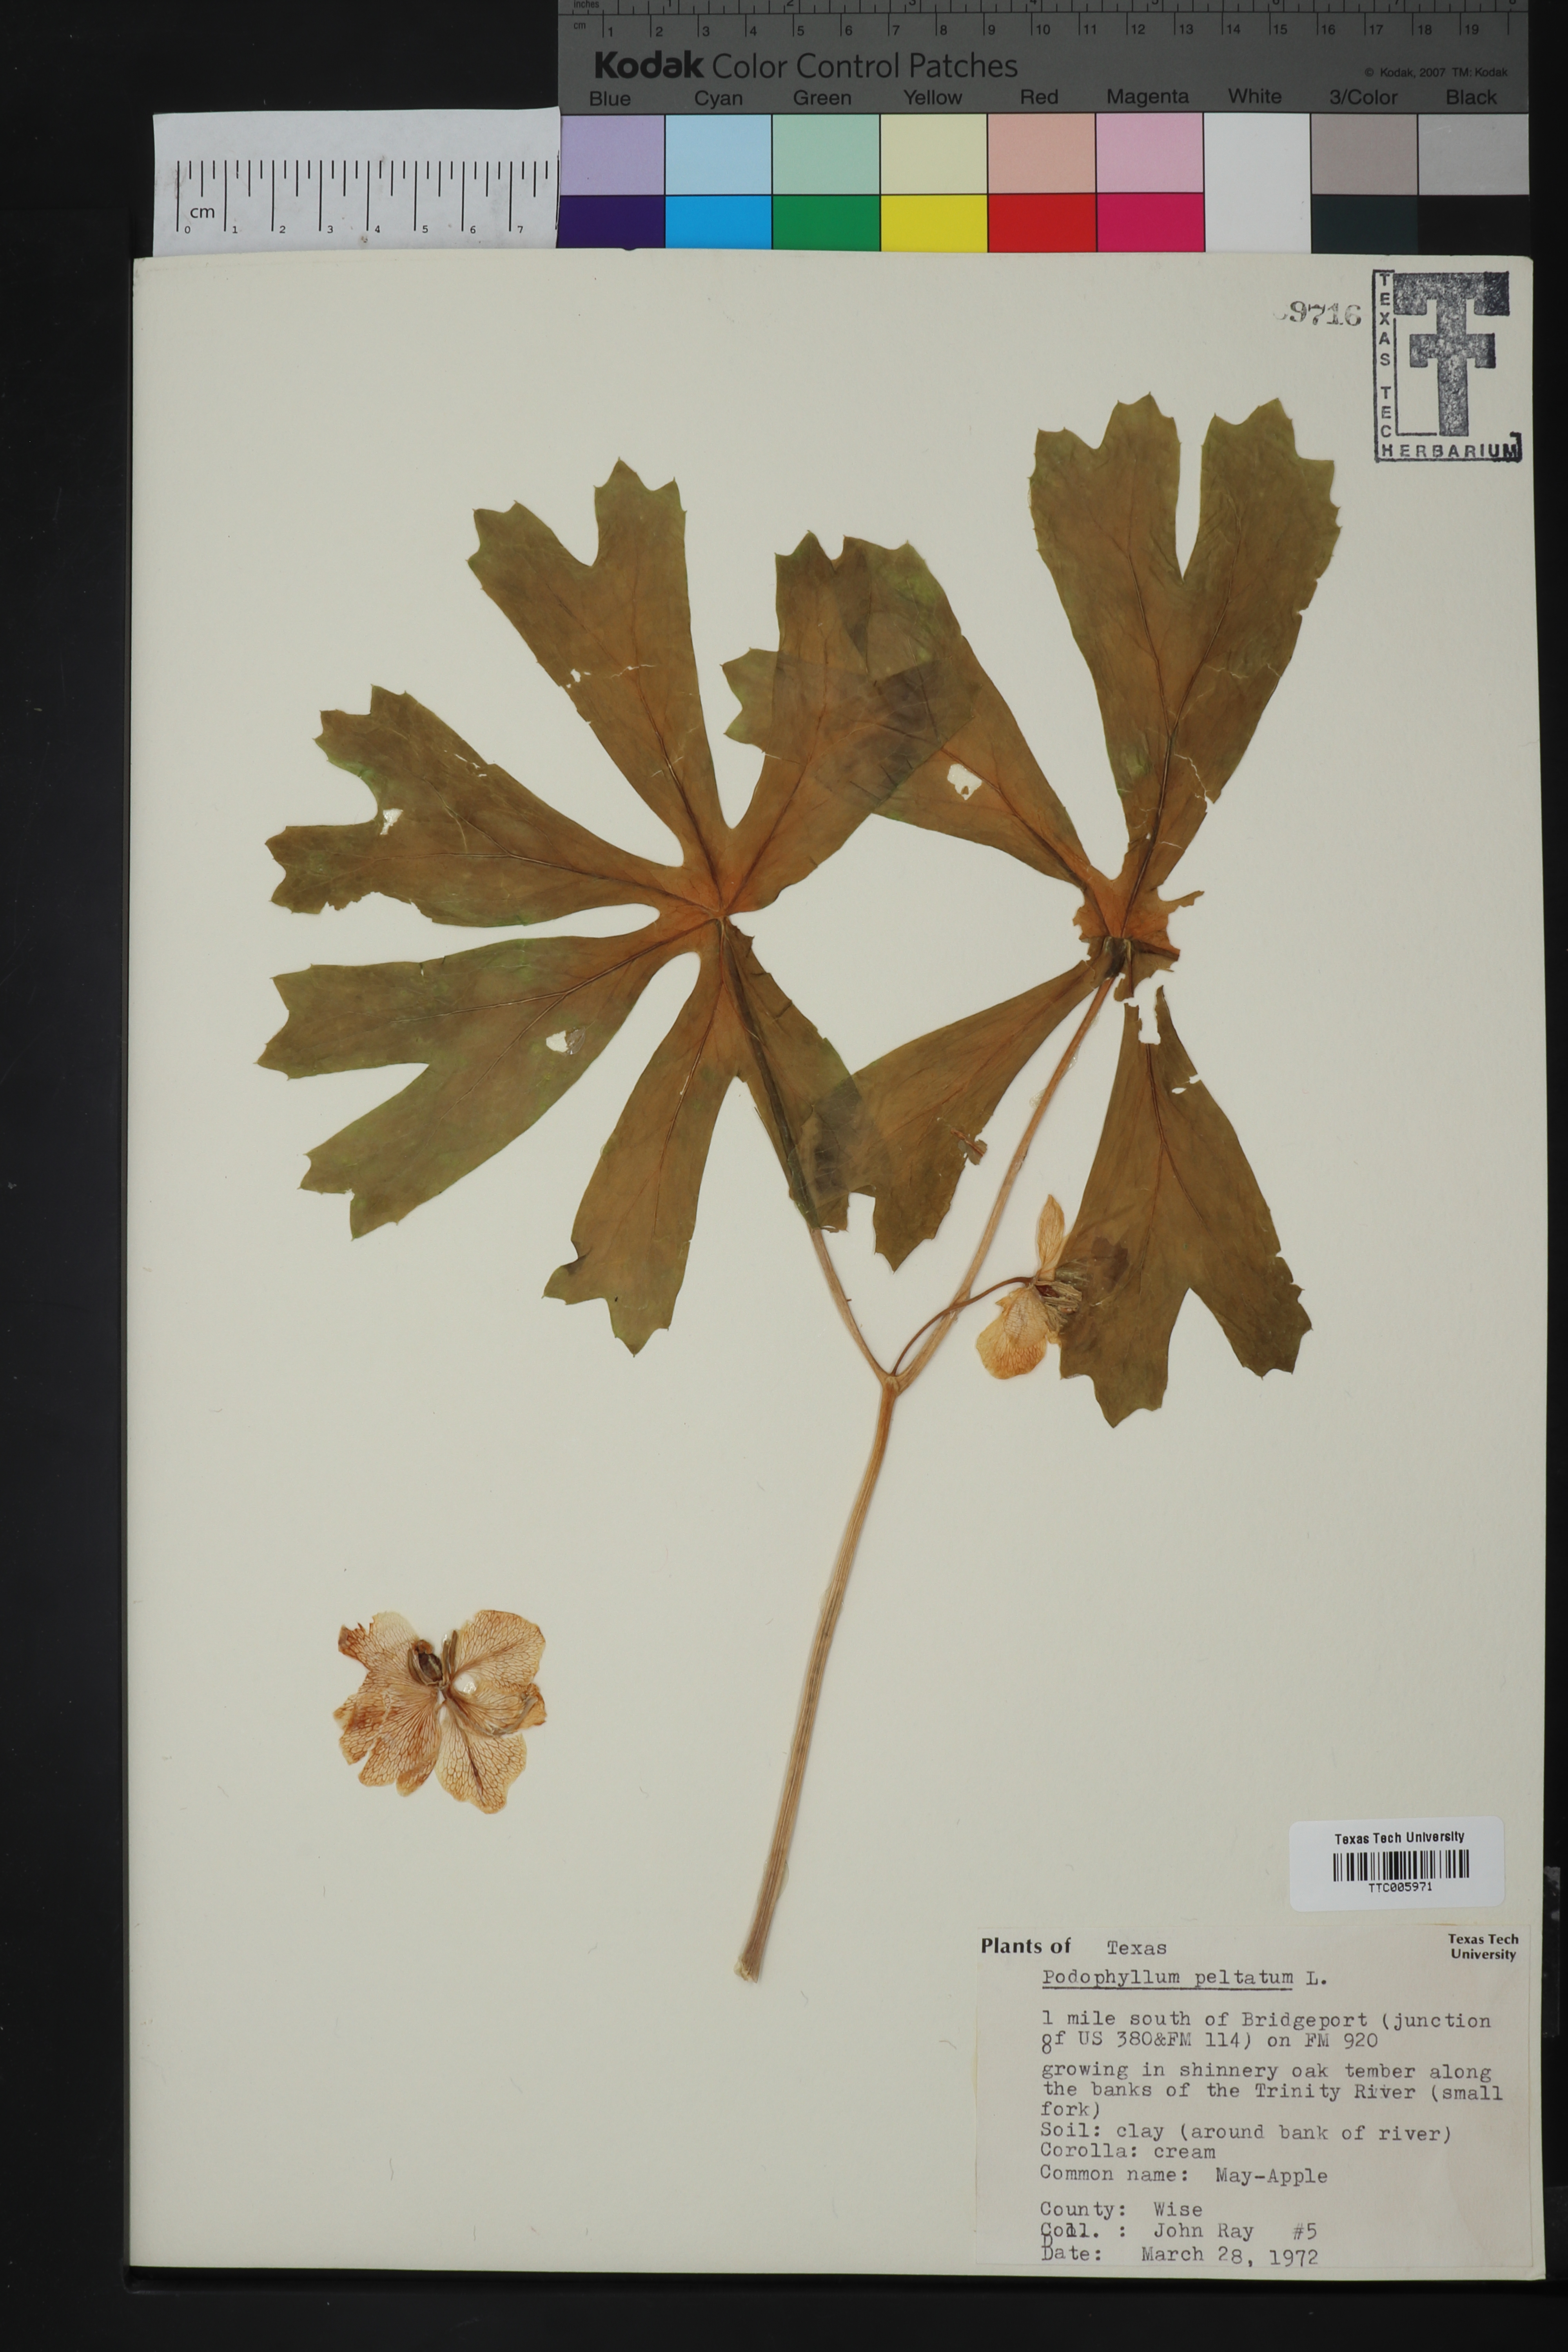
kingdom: Plantae
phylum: Tracheophyta
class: Magnoliopsida
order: Ranunculales
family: Berberidaceae
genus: Podophyllum
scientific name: Podophyllum peltatum
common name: Wild mandrake
